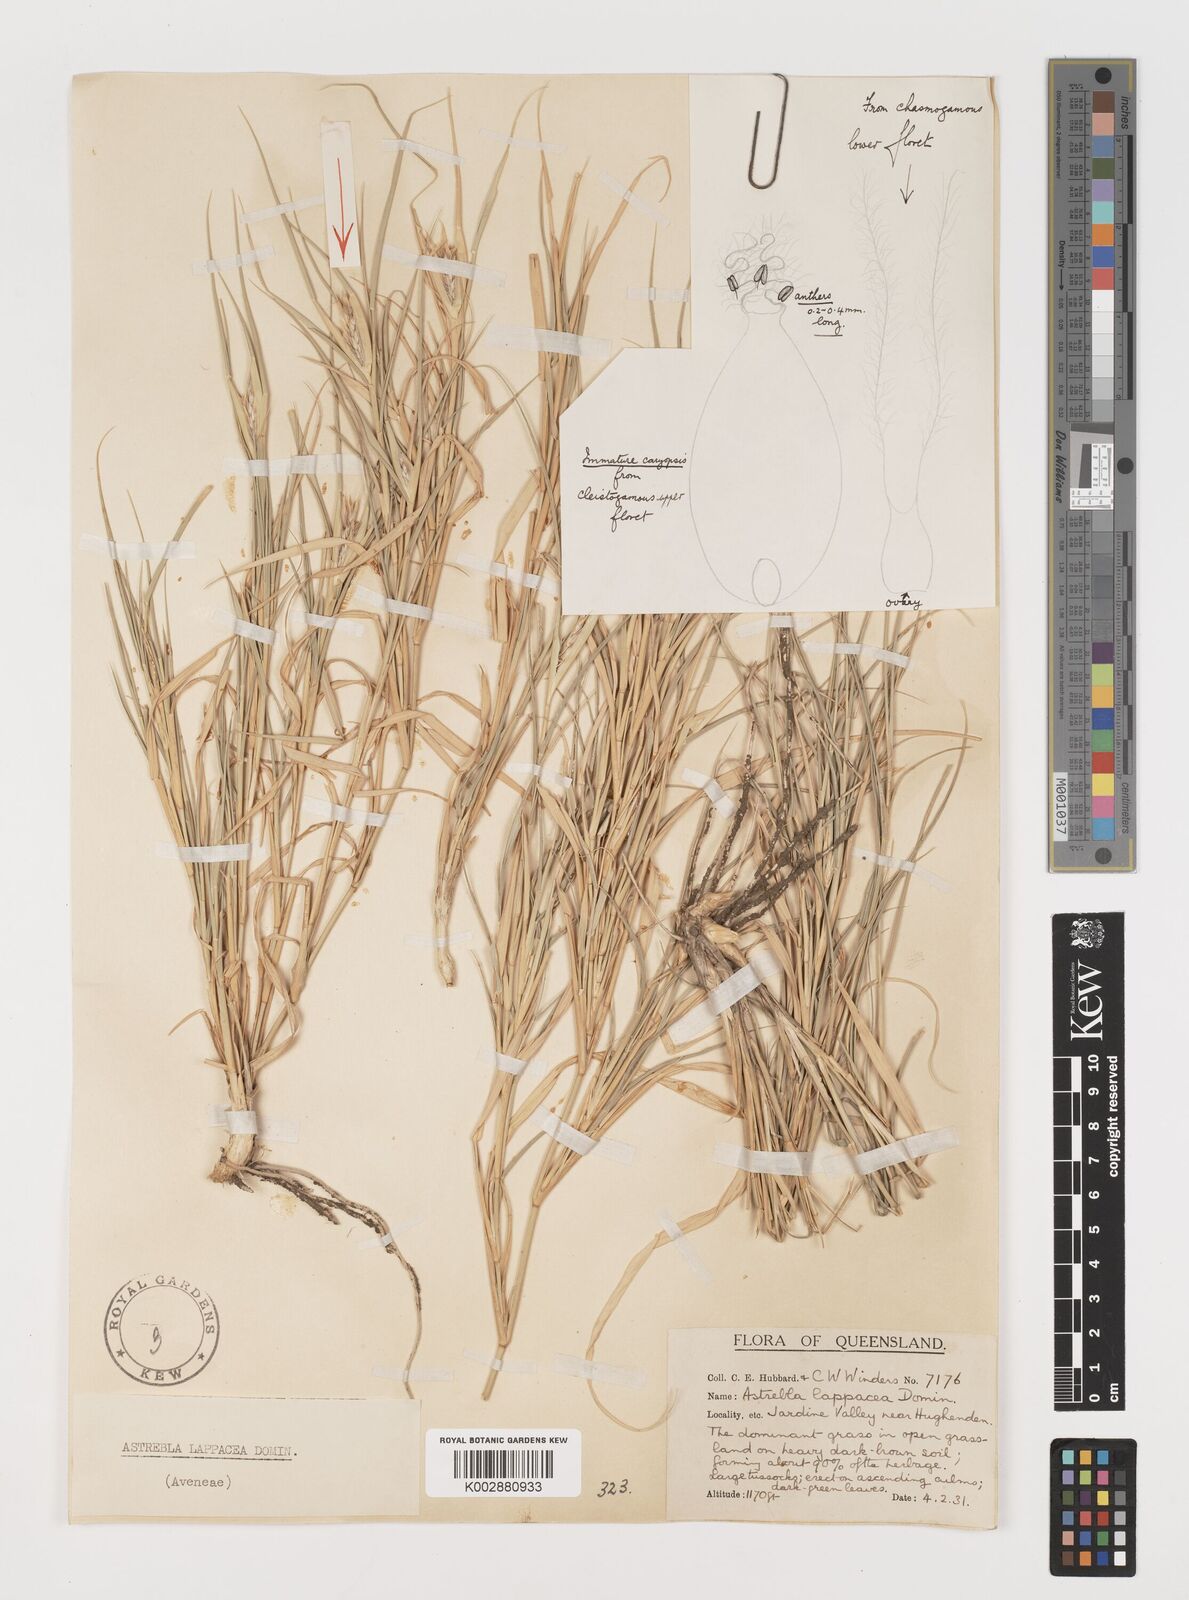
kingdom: Plantae
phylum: Tracheophyta
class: Liliopsida
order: Poales
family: Poaceae
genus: Astrebla
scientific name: Astrebla lappacea
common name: Curly mitchell grass
